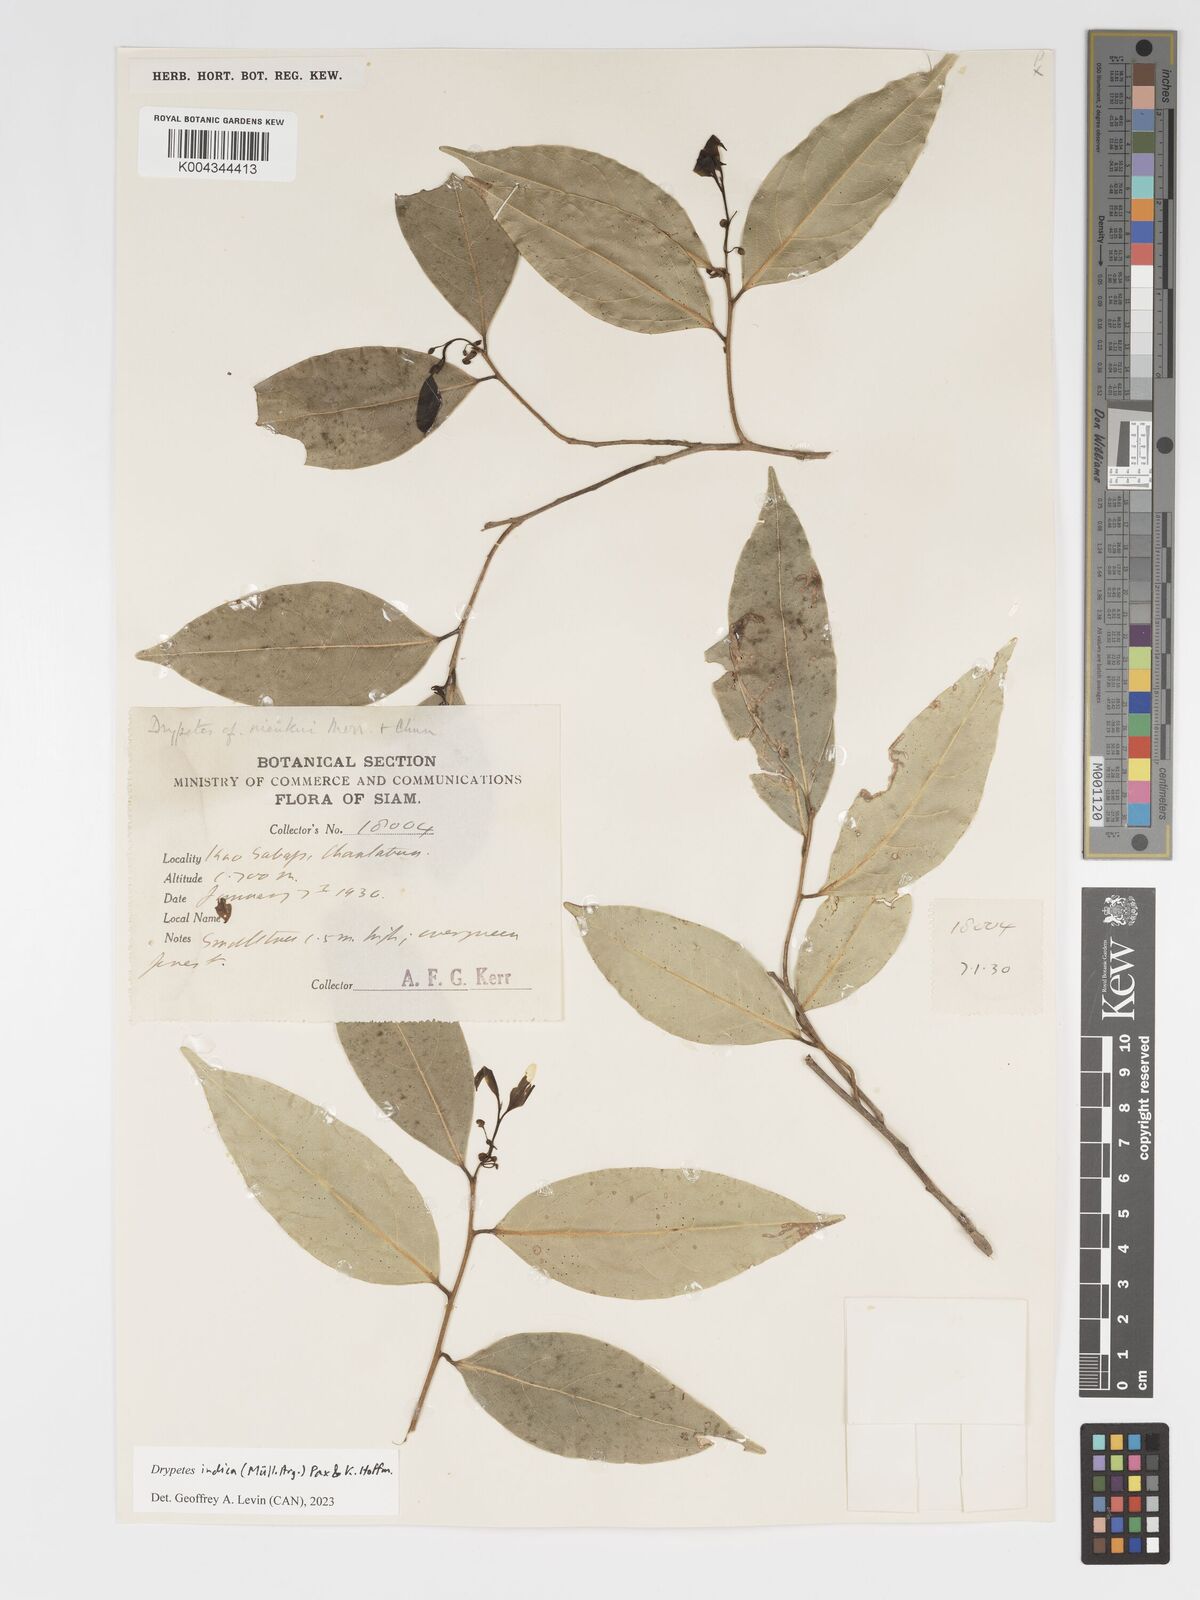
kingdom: Plantae
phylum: Tracheophyta
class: Magnoliopsida
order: Malpighiales
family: Putranjivaceae
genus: Drypetes
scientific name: Drypetes indica
